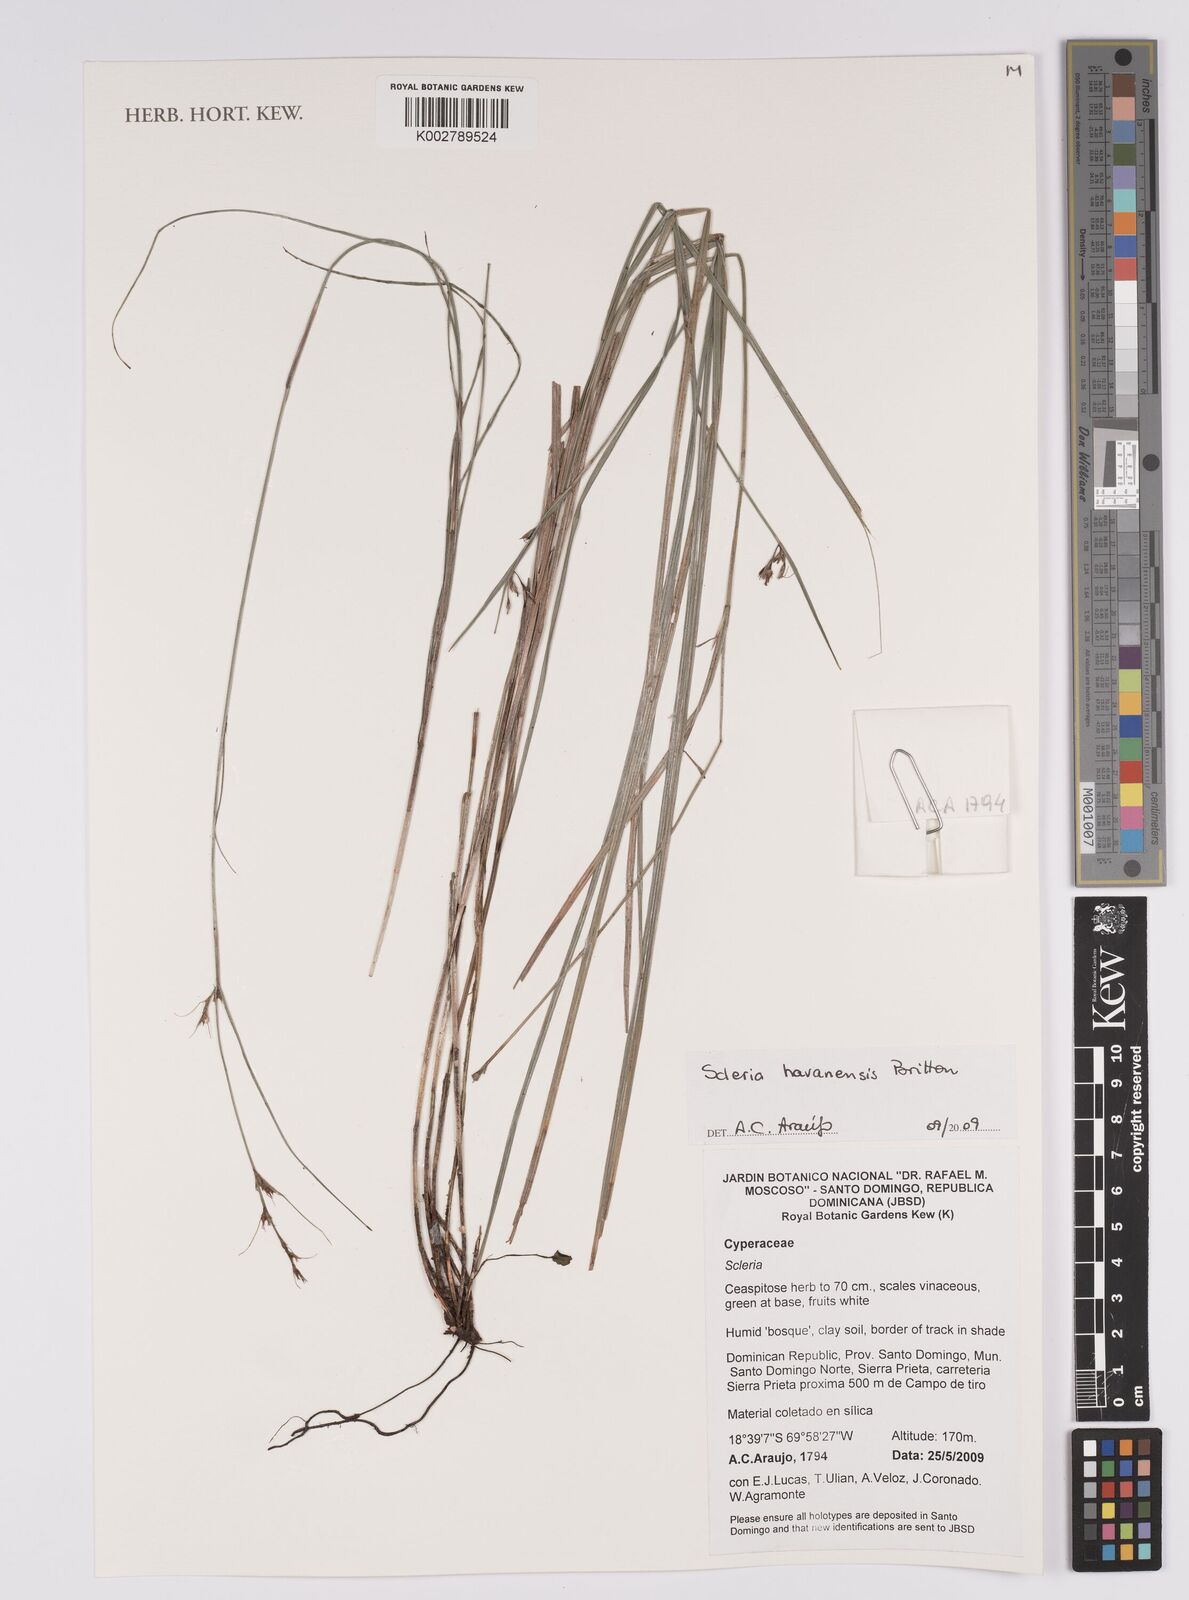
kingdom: Plantae
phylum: Tracheophyta
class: Liliopsida
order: Poales
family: Cyperaceae
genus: Scleria
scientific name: Scleria havanensis
